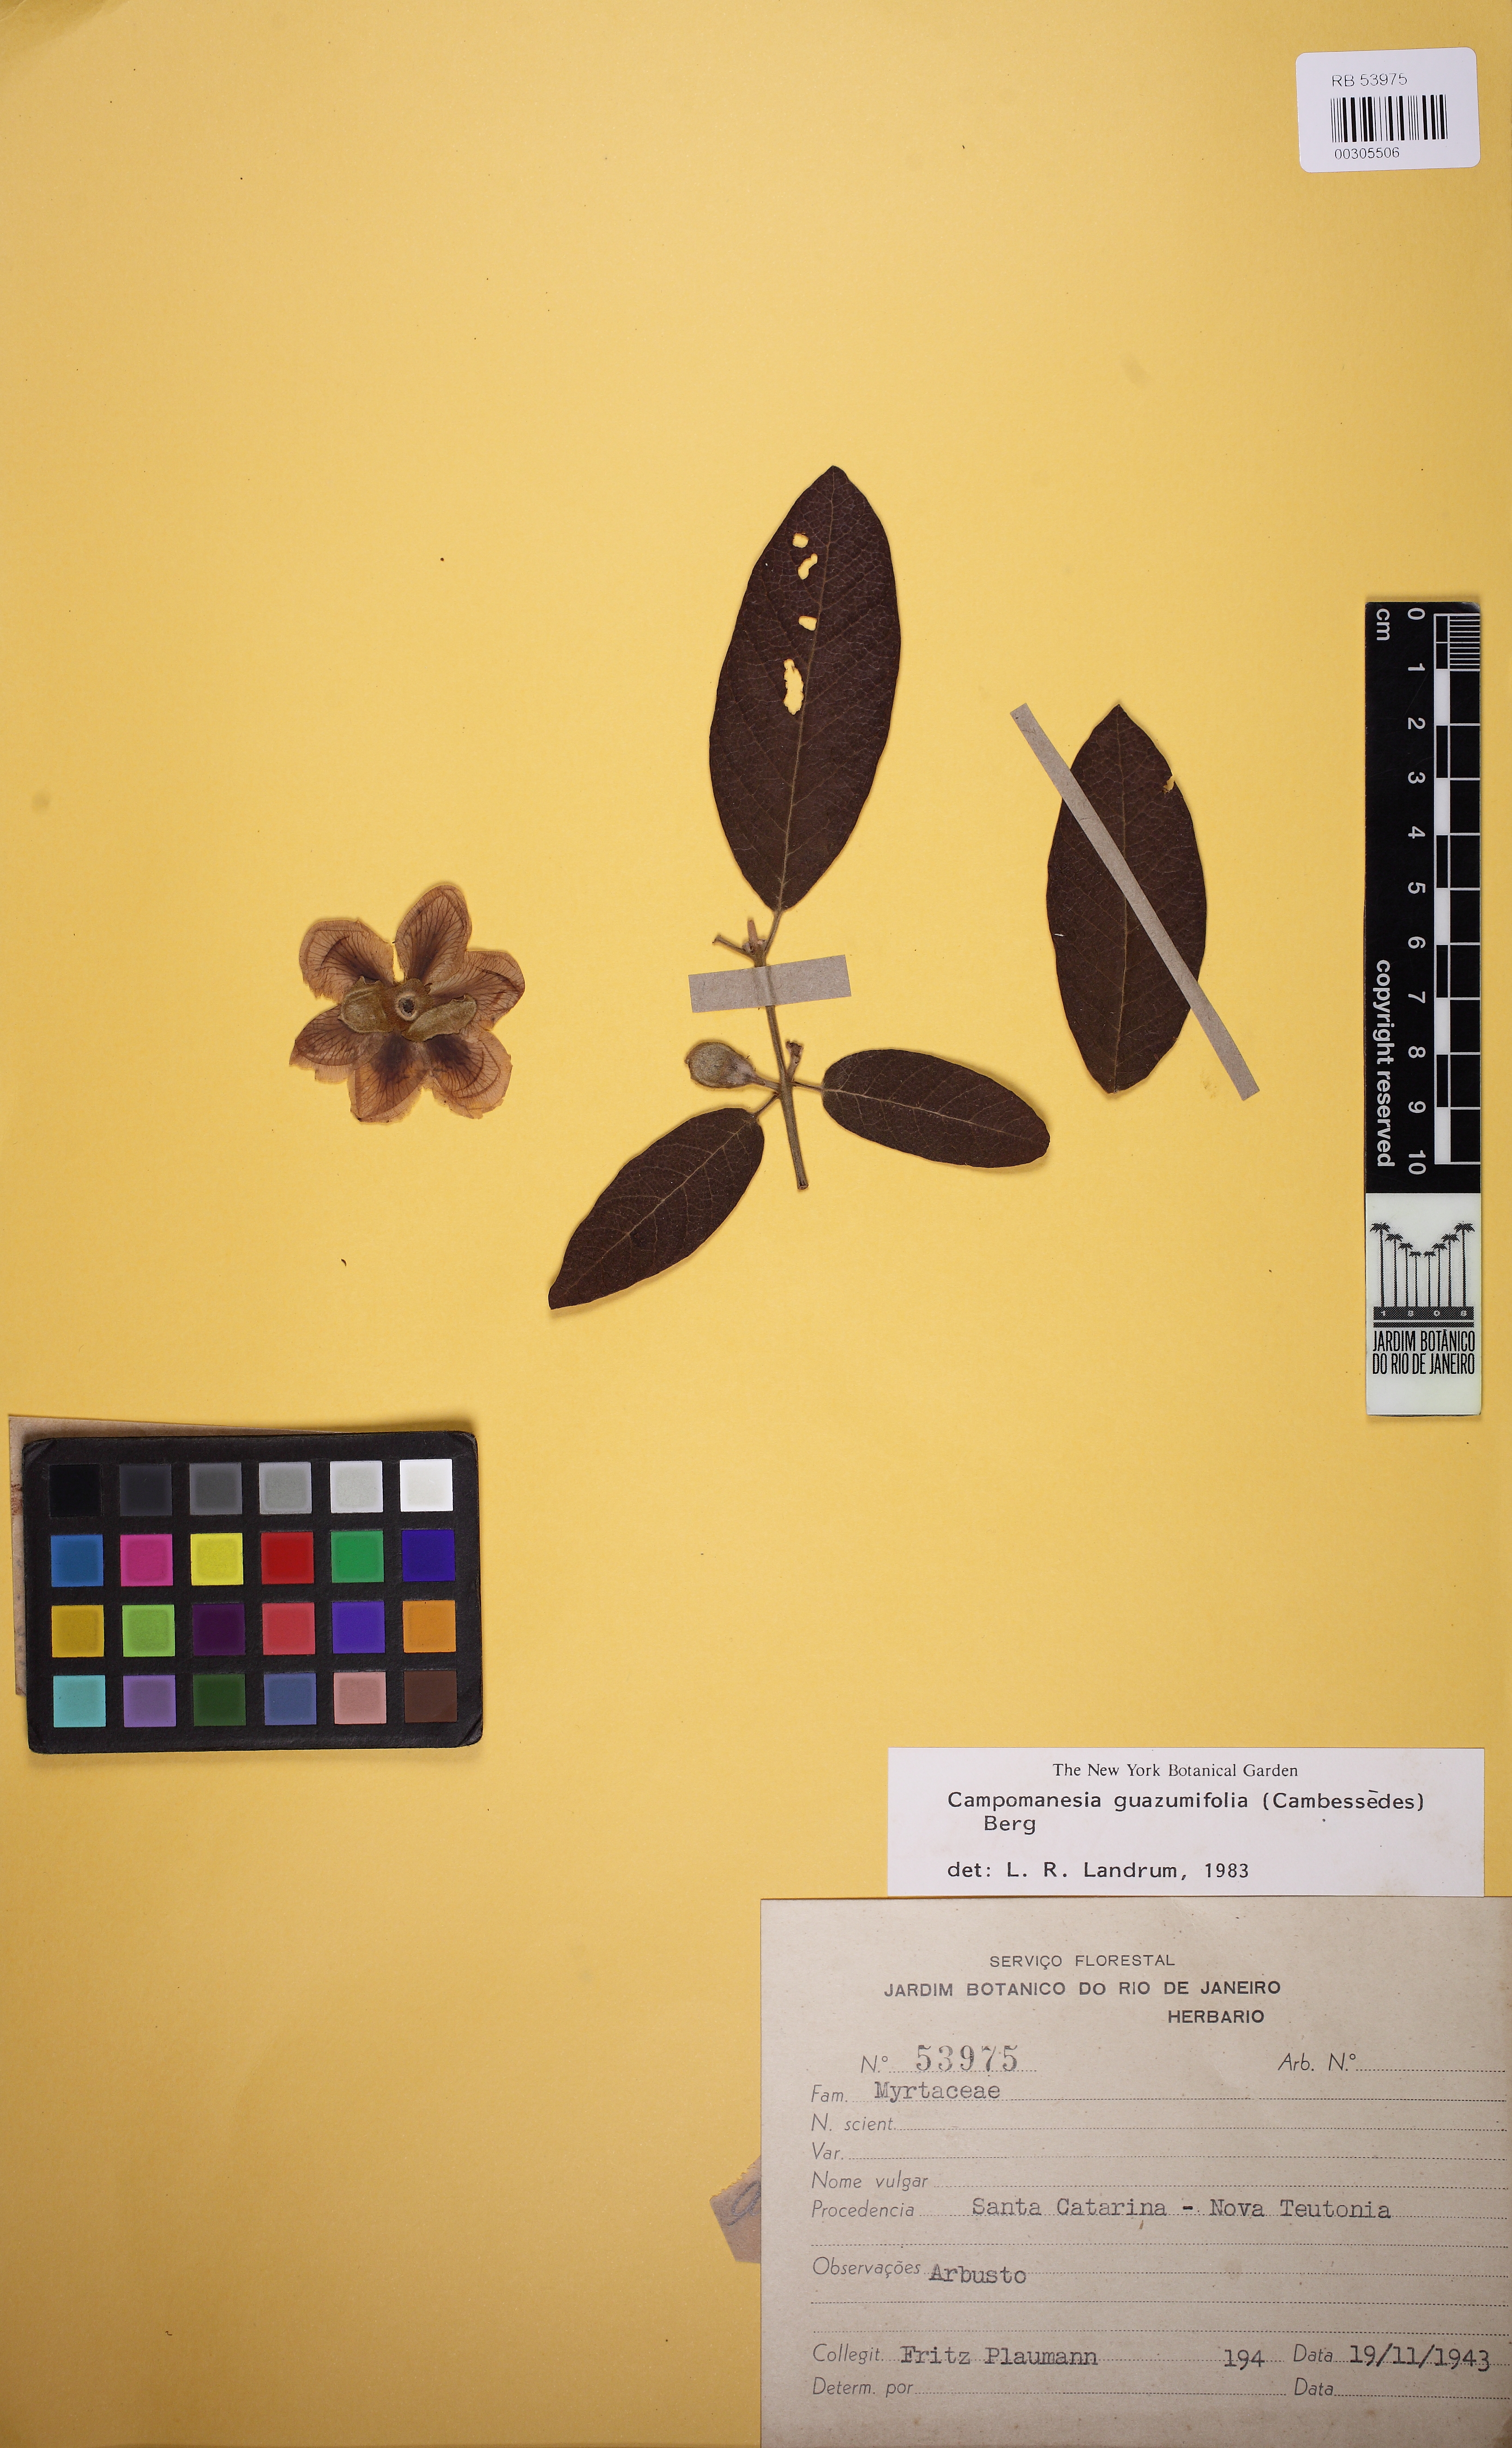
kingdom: Plantae
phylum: Tracheophyta
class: Magnoliopsida
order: Myrtales
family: Myrtaceae
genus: Campomanesia
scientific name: Campomanesia guazumifolia
